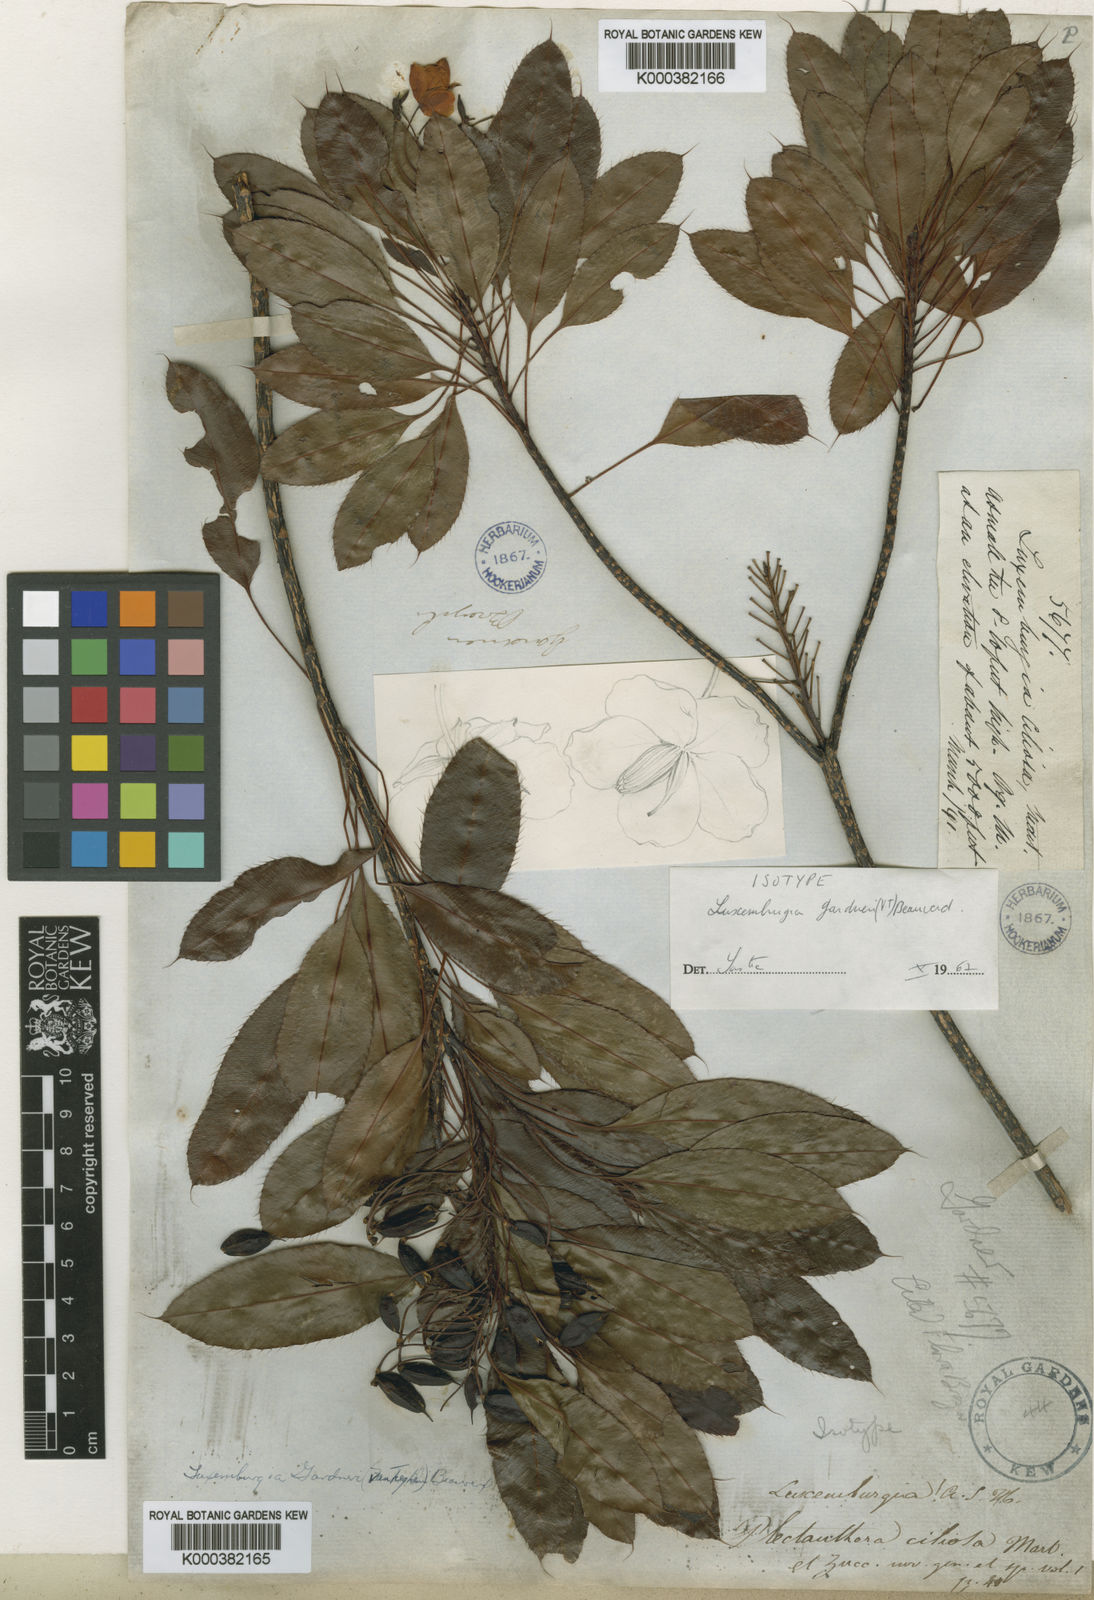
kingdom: Plantae
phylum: Tracheophyta
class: Magnoliopsida
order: Malpighiales
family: Ochnaceae
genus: Luxemburgia
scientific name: Luxemburgia ciliosa
